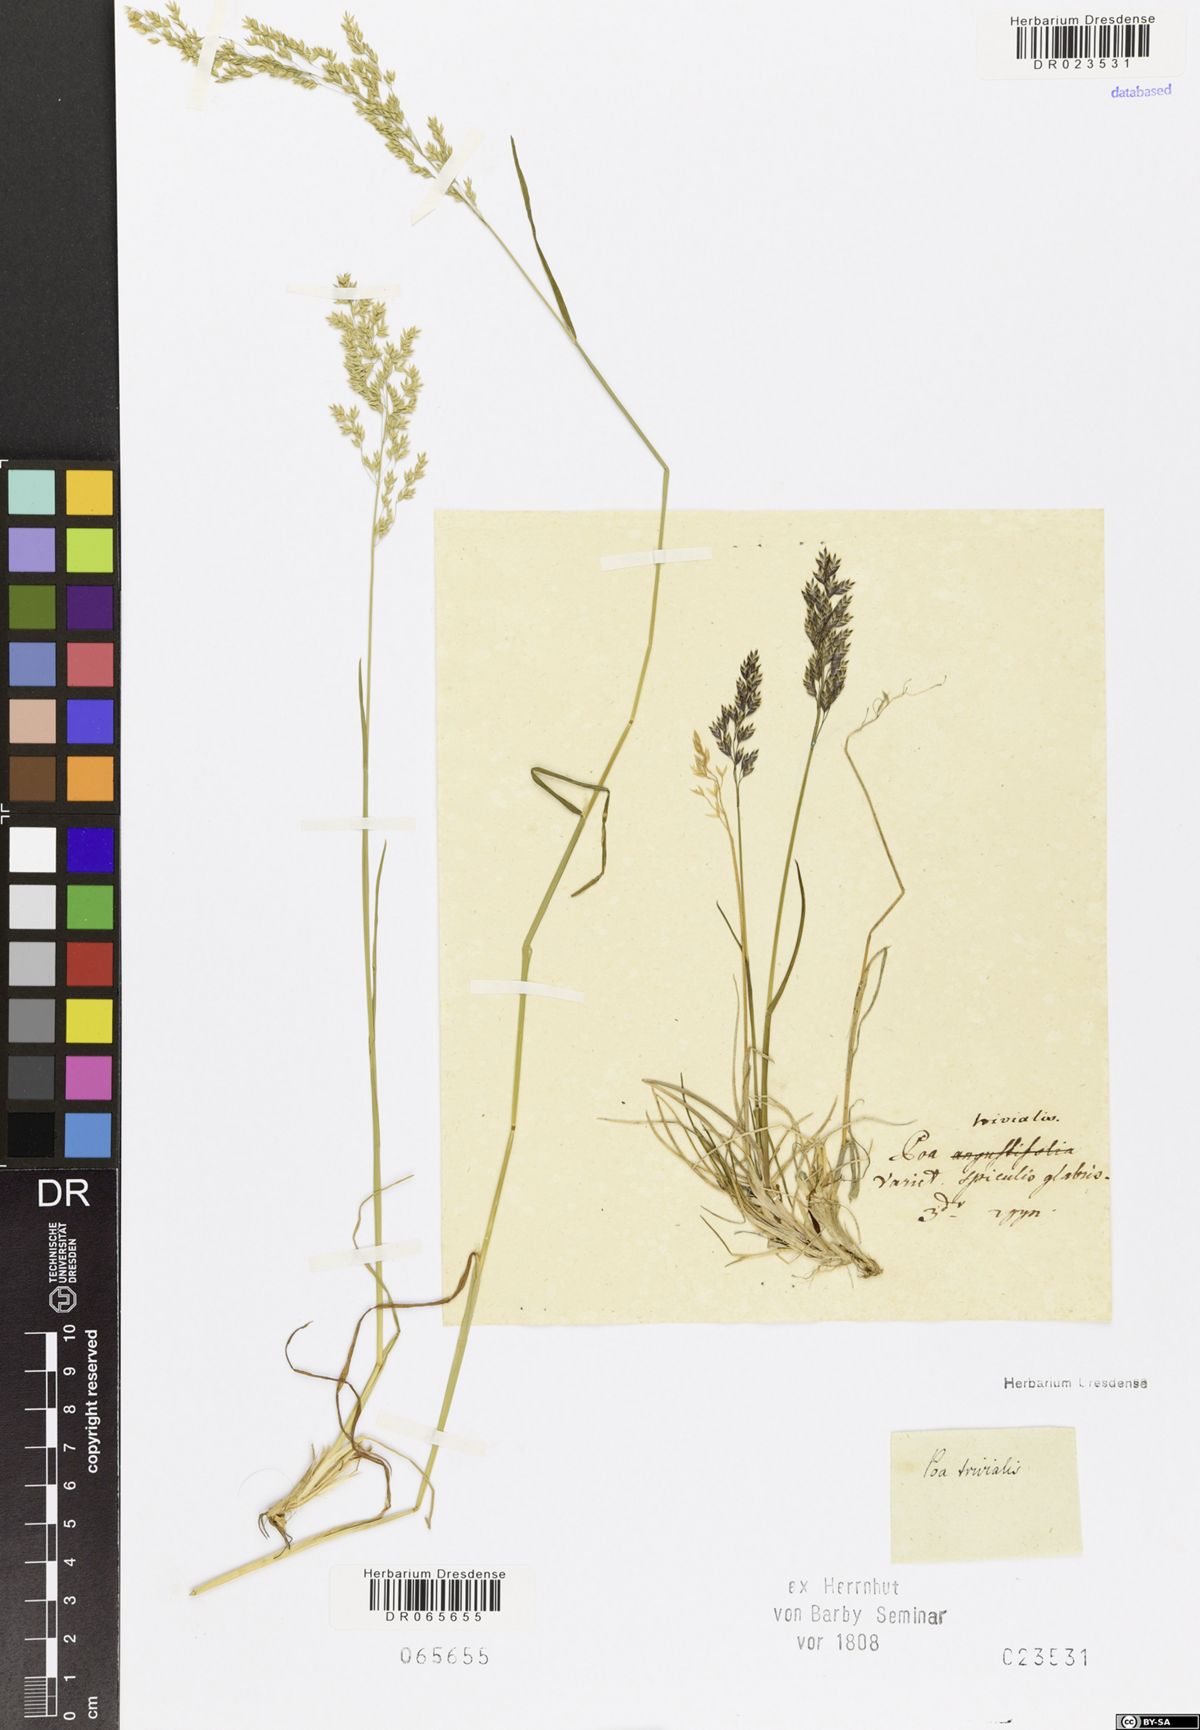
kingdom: Plantae
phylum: Tracheophyta
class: Liliopsida
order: Poales
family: Poaceae
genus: Poa
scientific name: Poa trivialis
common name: Rough bluegrass
